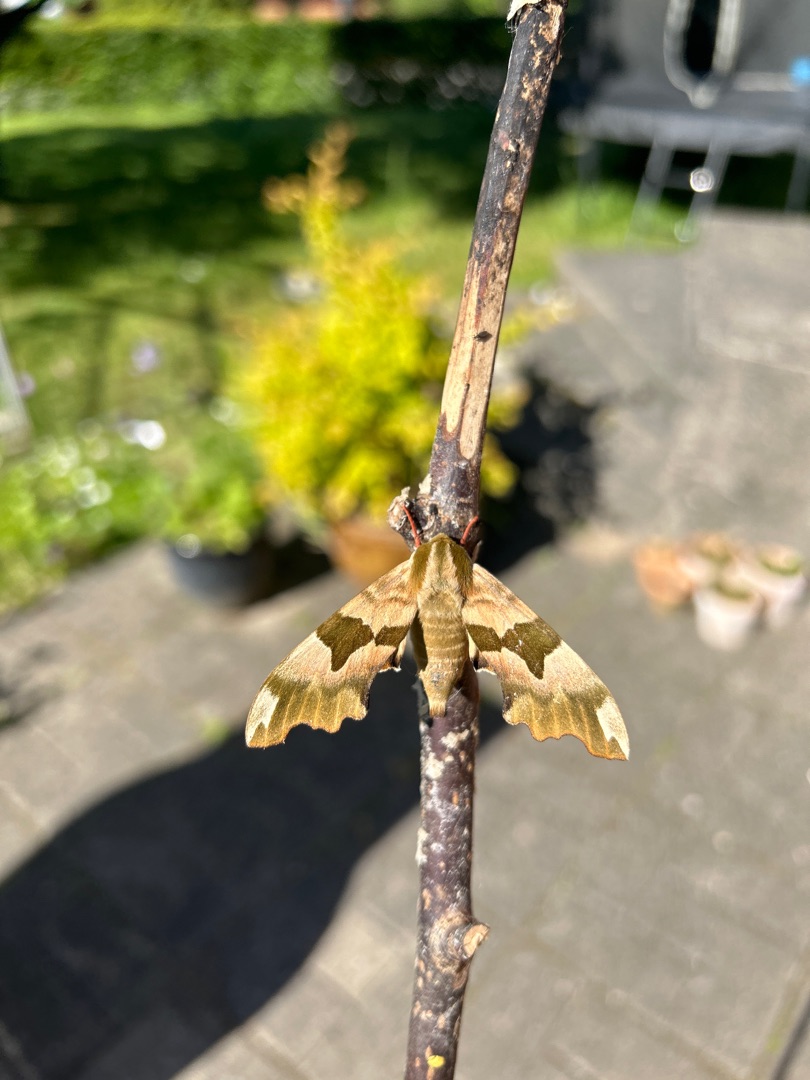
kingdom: Animalia
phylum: Arthropoda
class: Insecta
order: Lepidoptera
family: Sphingidae
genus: Mimas
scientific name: Mimas tiliae
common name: Lindesværmer
